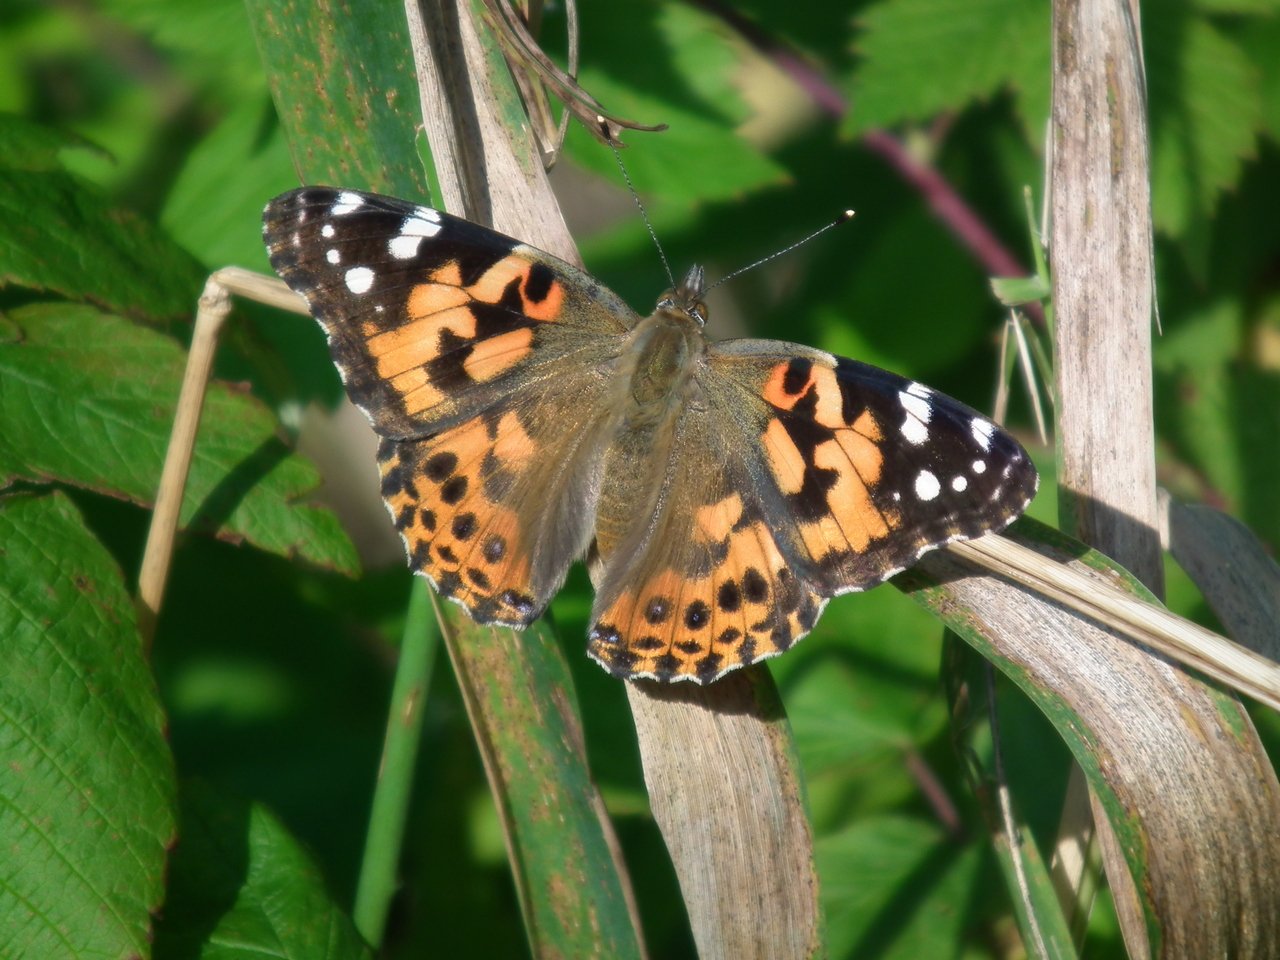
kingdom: Animalia
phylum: Arthropoda
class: Insecta
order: Lepidoptera
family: Nymphalidae
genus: Vanessa
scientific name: Vanessa cardui
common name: Painted Lady
